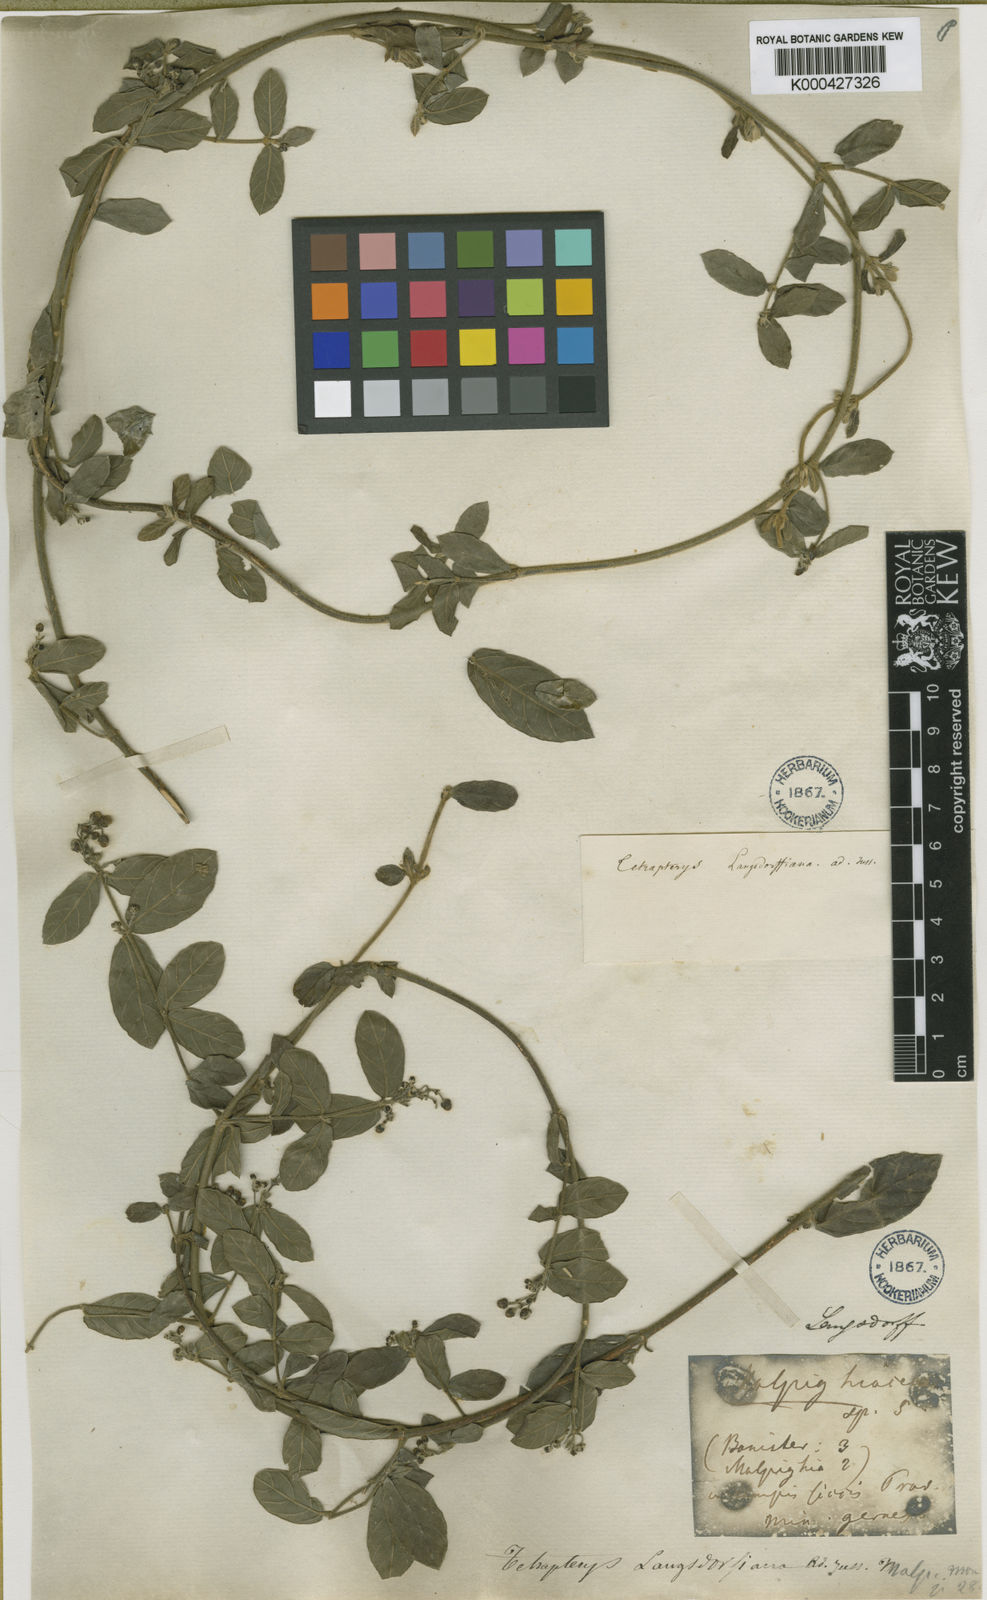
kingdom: Plantae
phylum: Tracheophyta
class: Magnoliopsida
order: Malpighiales
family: Malpighiaceae
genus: Tetrapterys
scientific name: Tetrapterys
